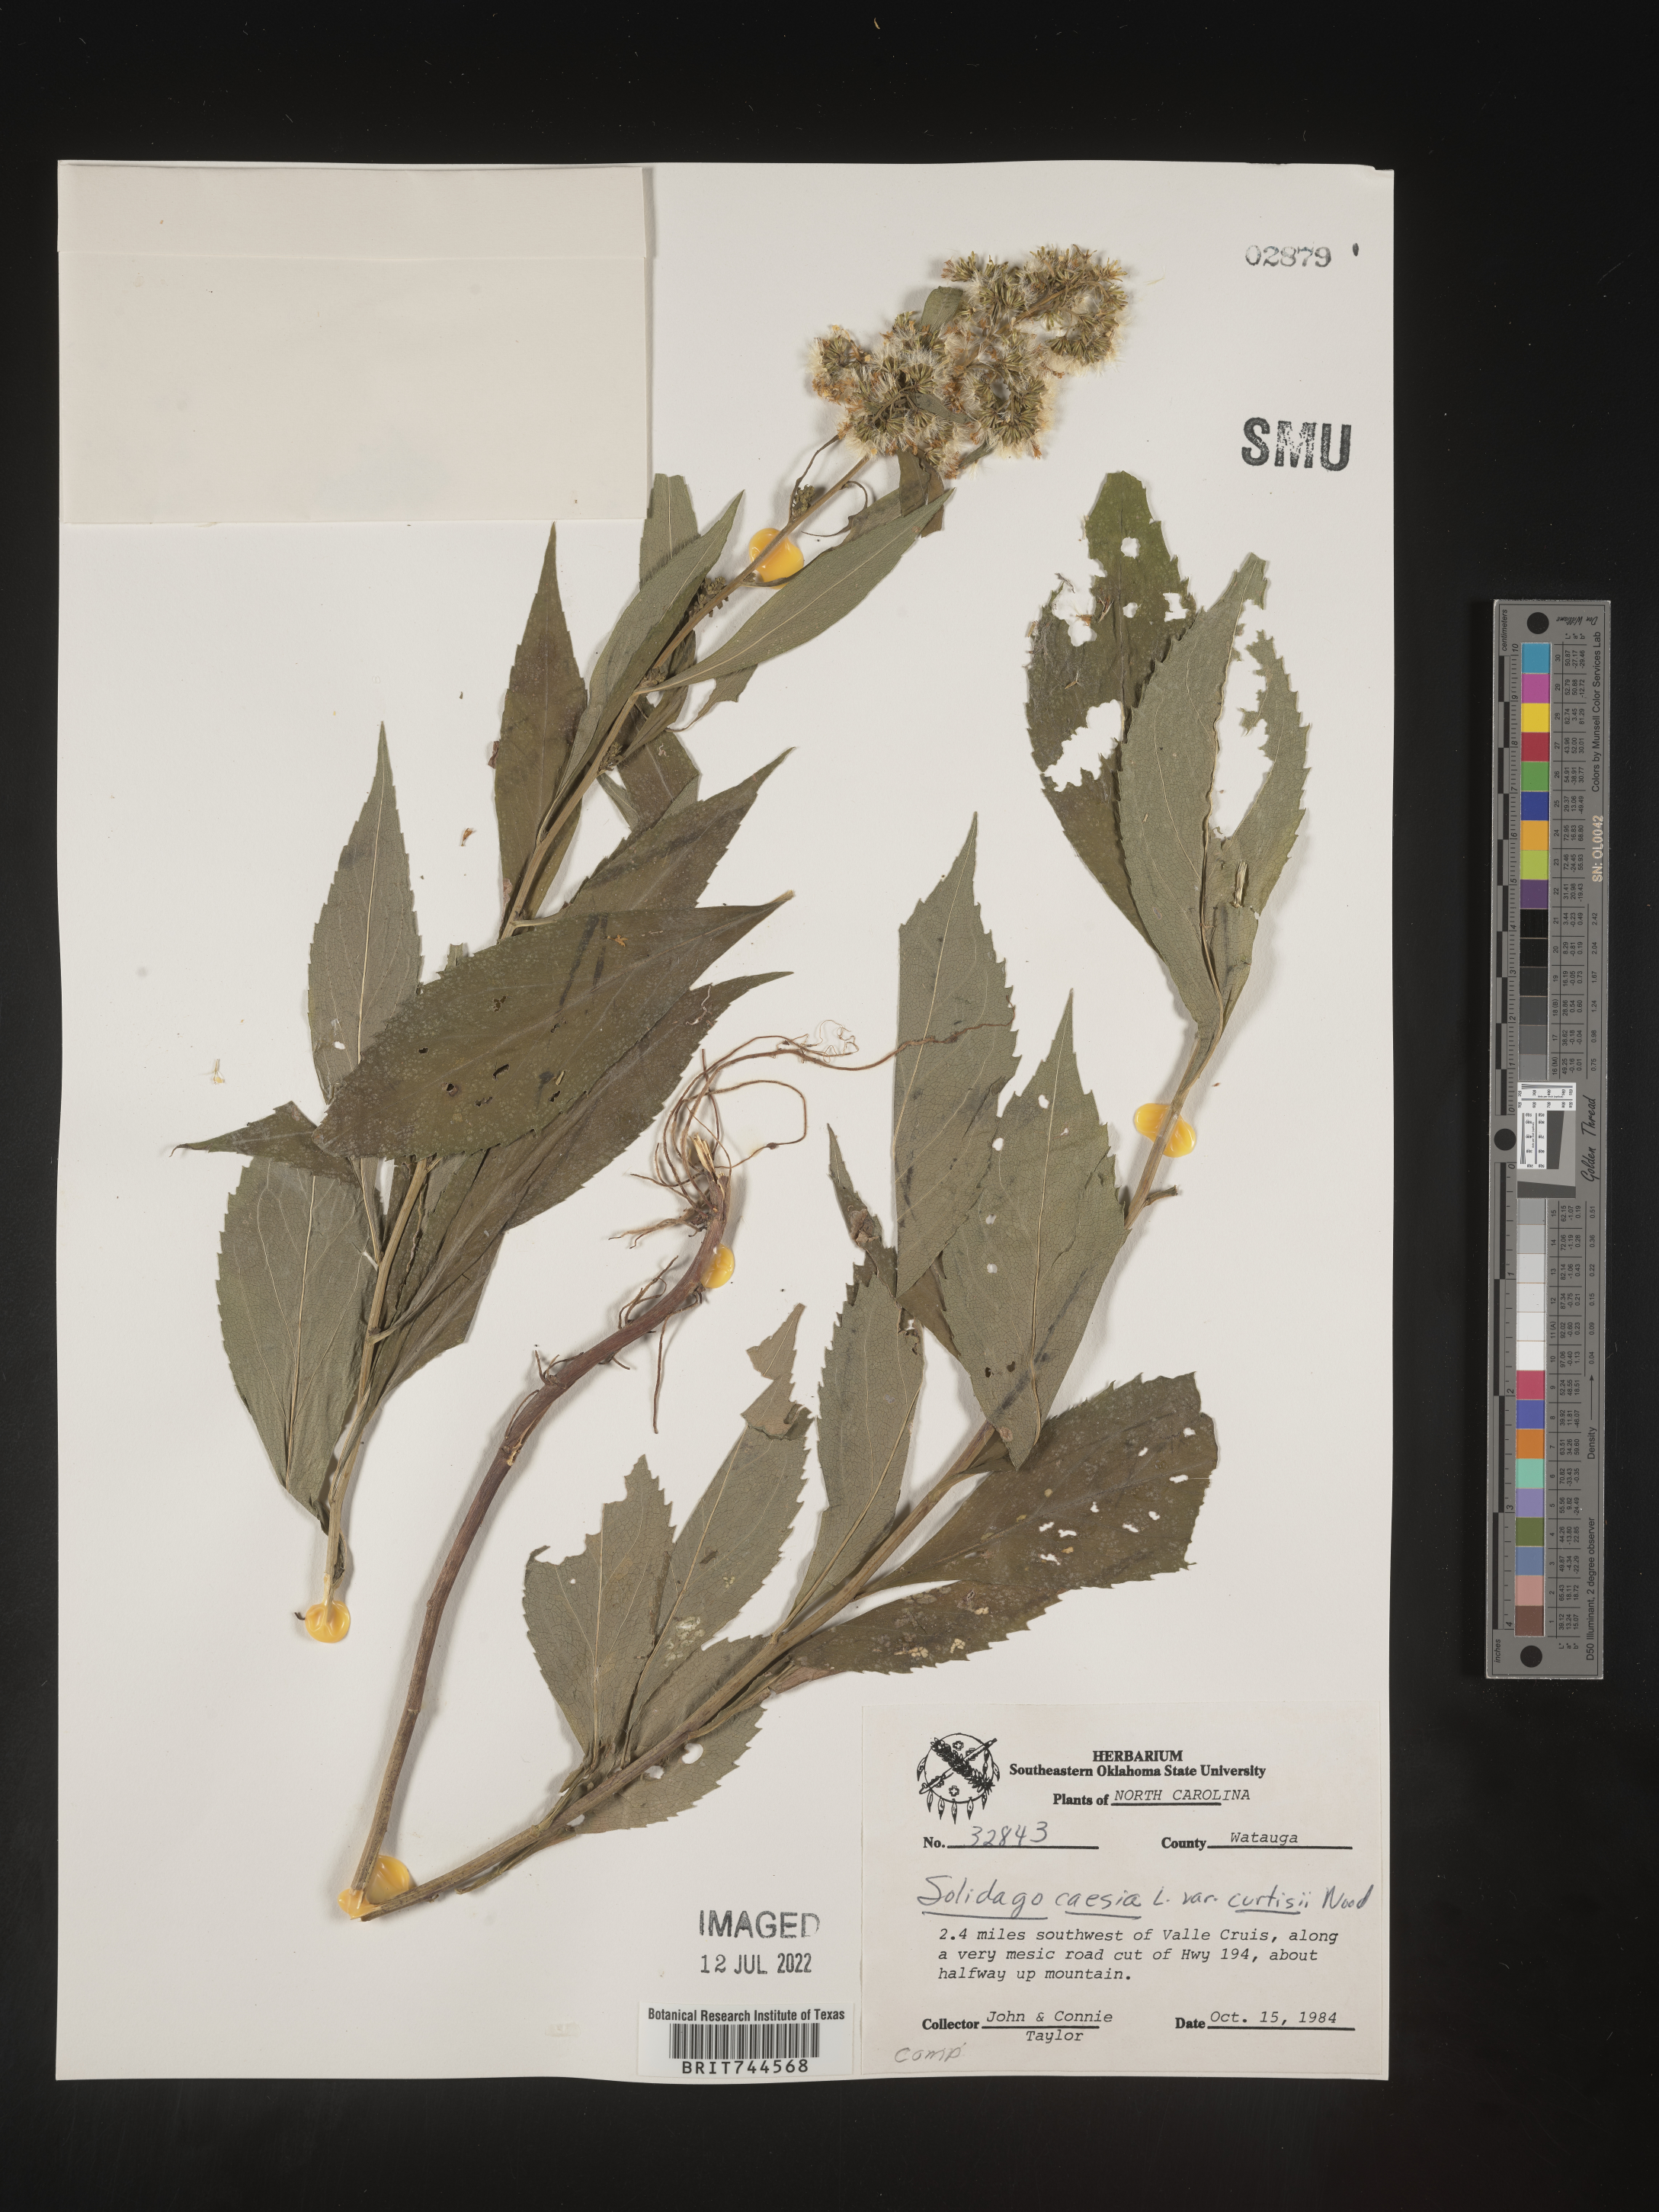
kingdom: Plantae
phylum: Tracheophyta
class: Magnoliopsida
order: Asterales
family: Asteraceae
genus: Solidago
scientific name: Solidago caesia
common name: Woodland goldenrod
